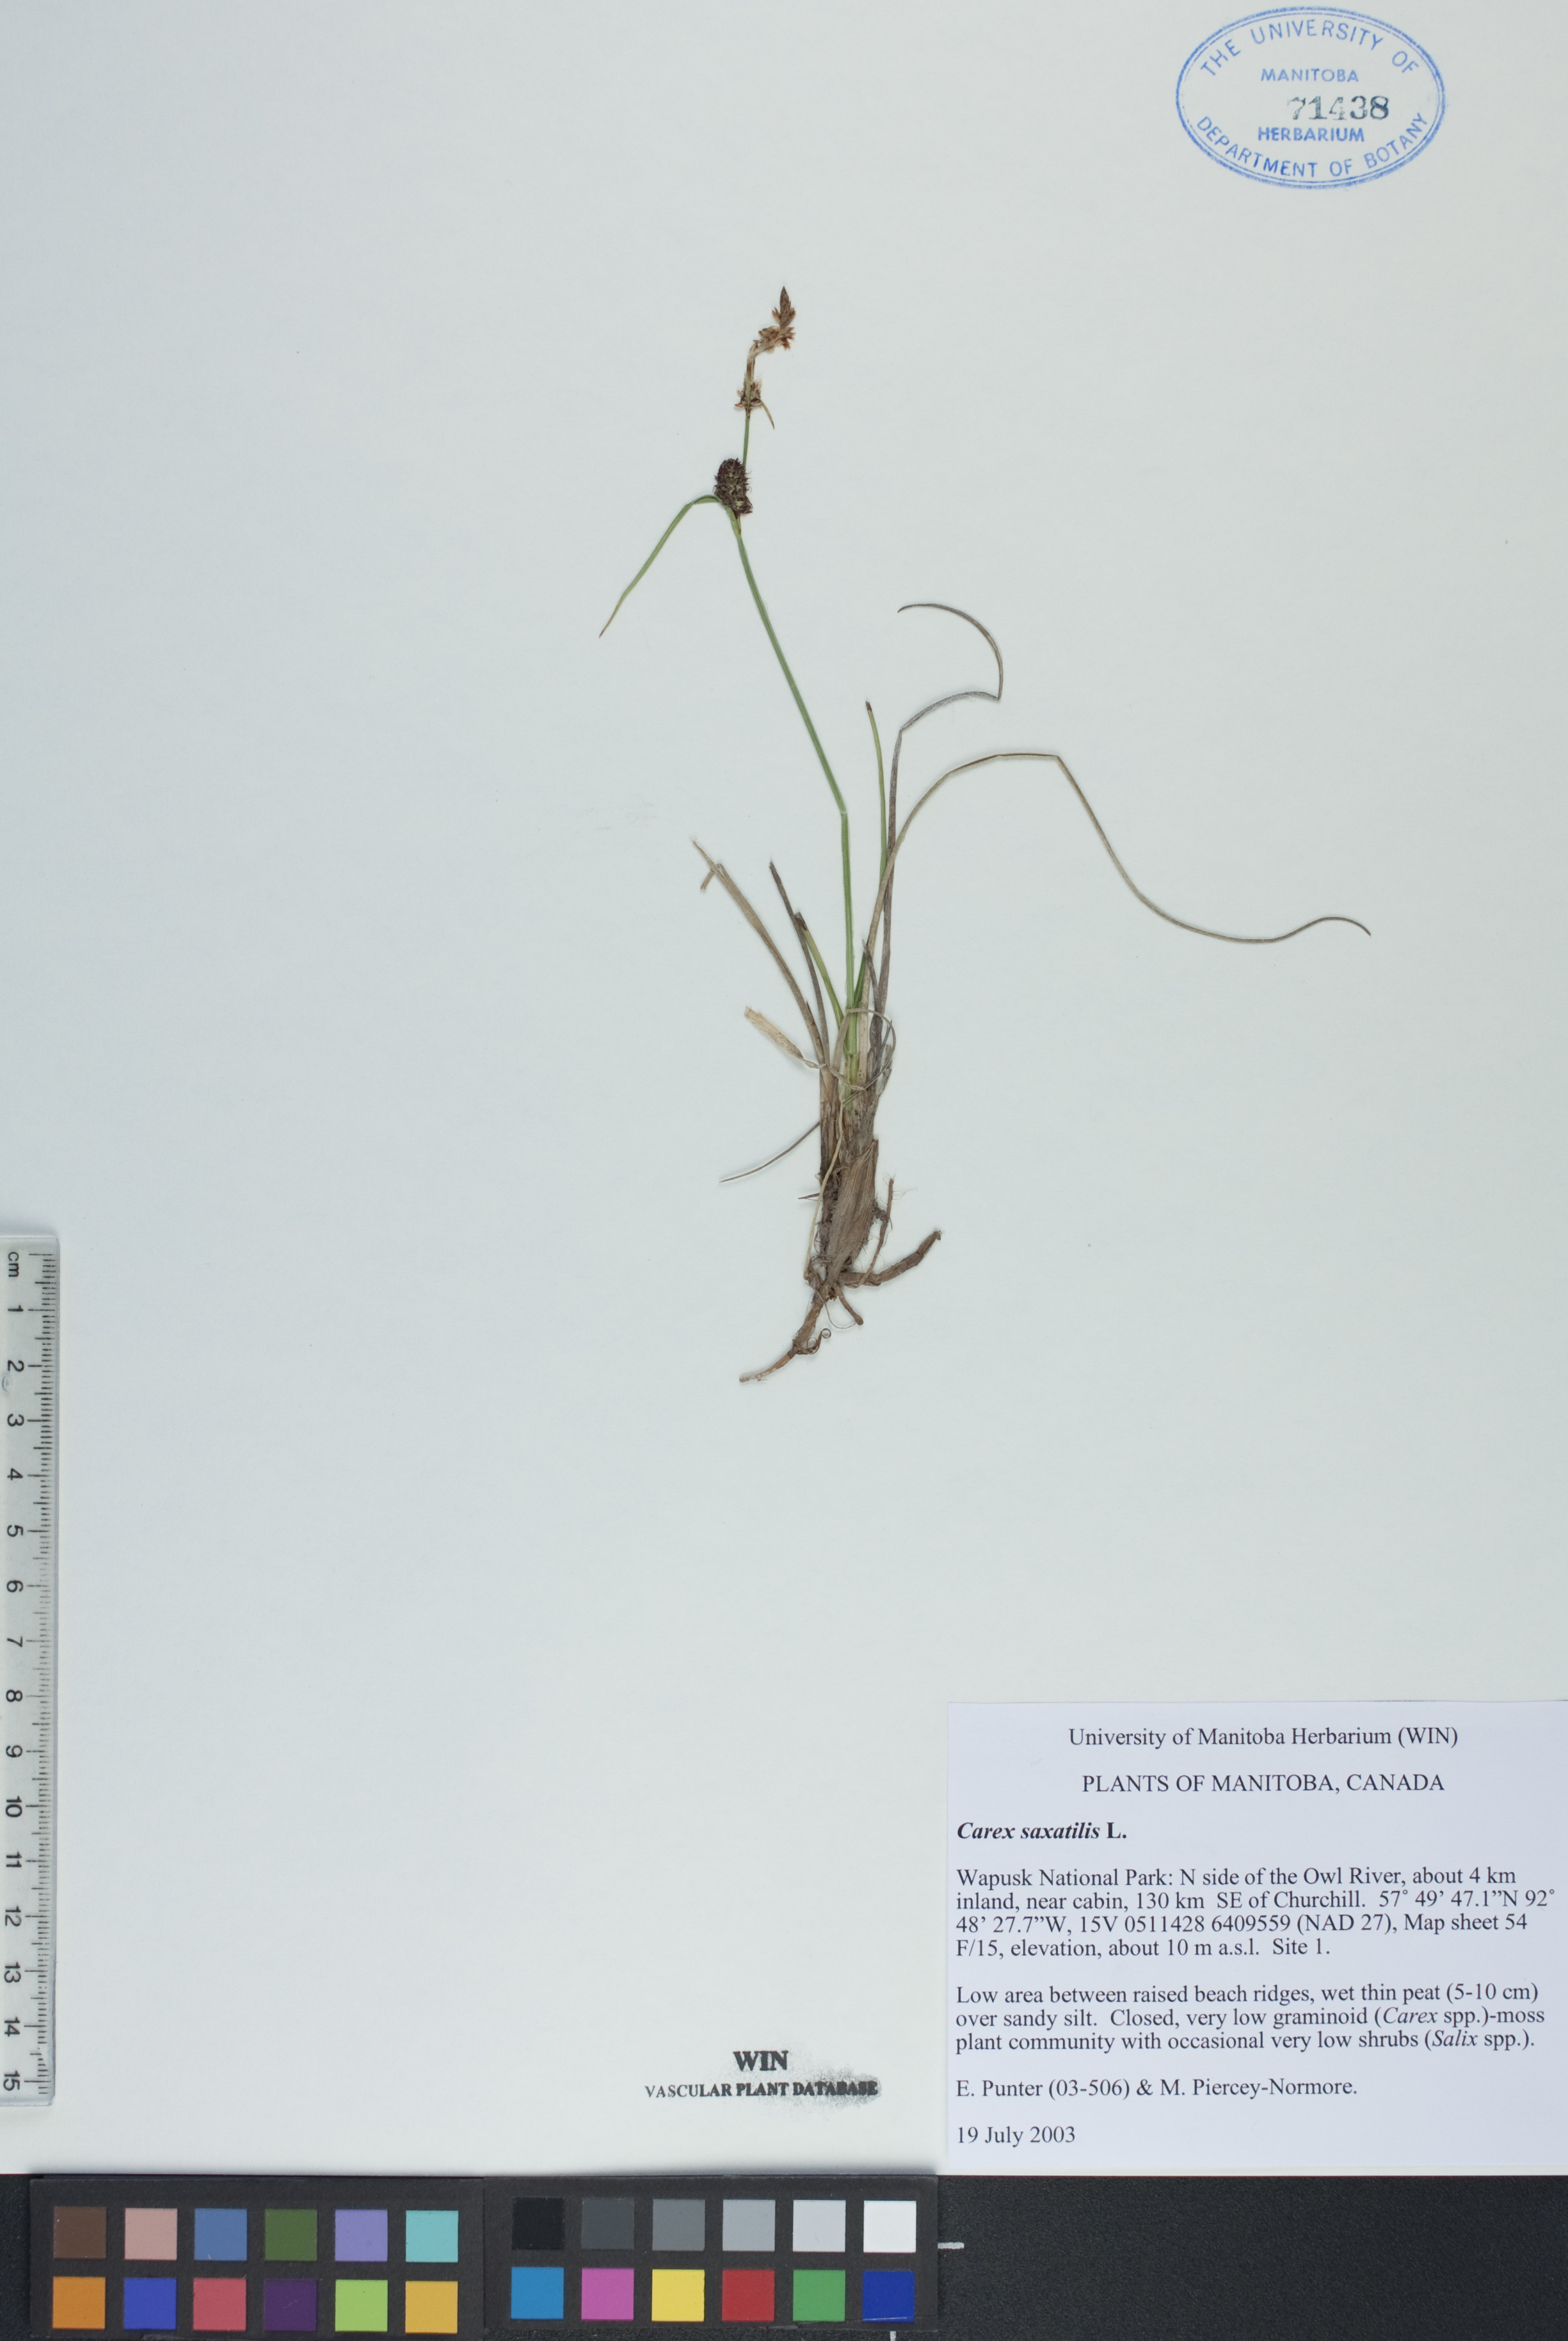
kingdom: Plantae
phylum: Tracheophyta
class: Liliopsida
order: Poales
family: Cyperaceae
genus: Carex
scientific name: Carex saxatilis
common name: Russet sedge
